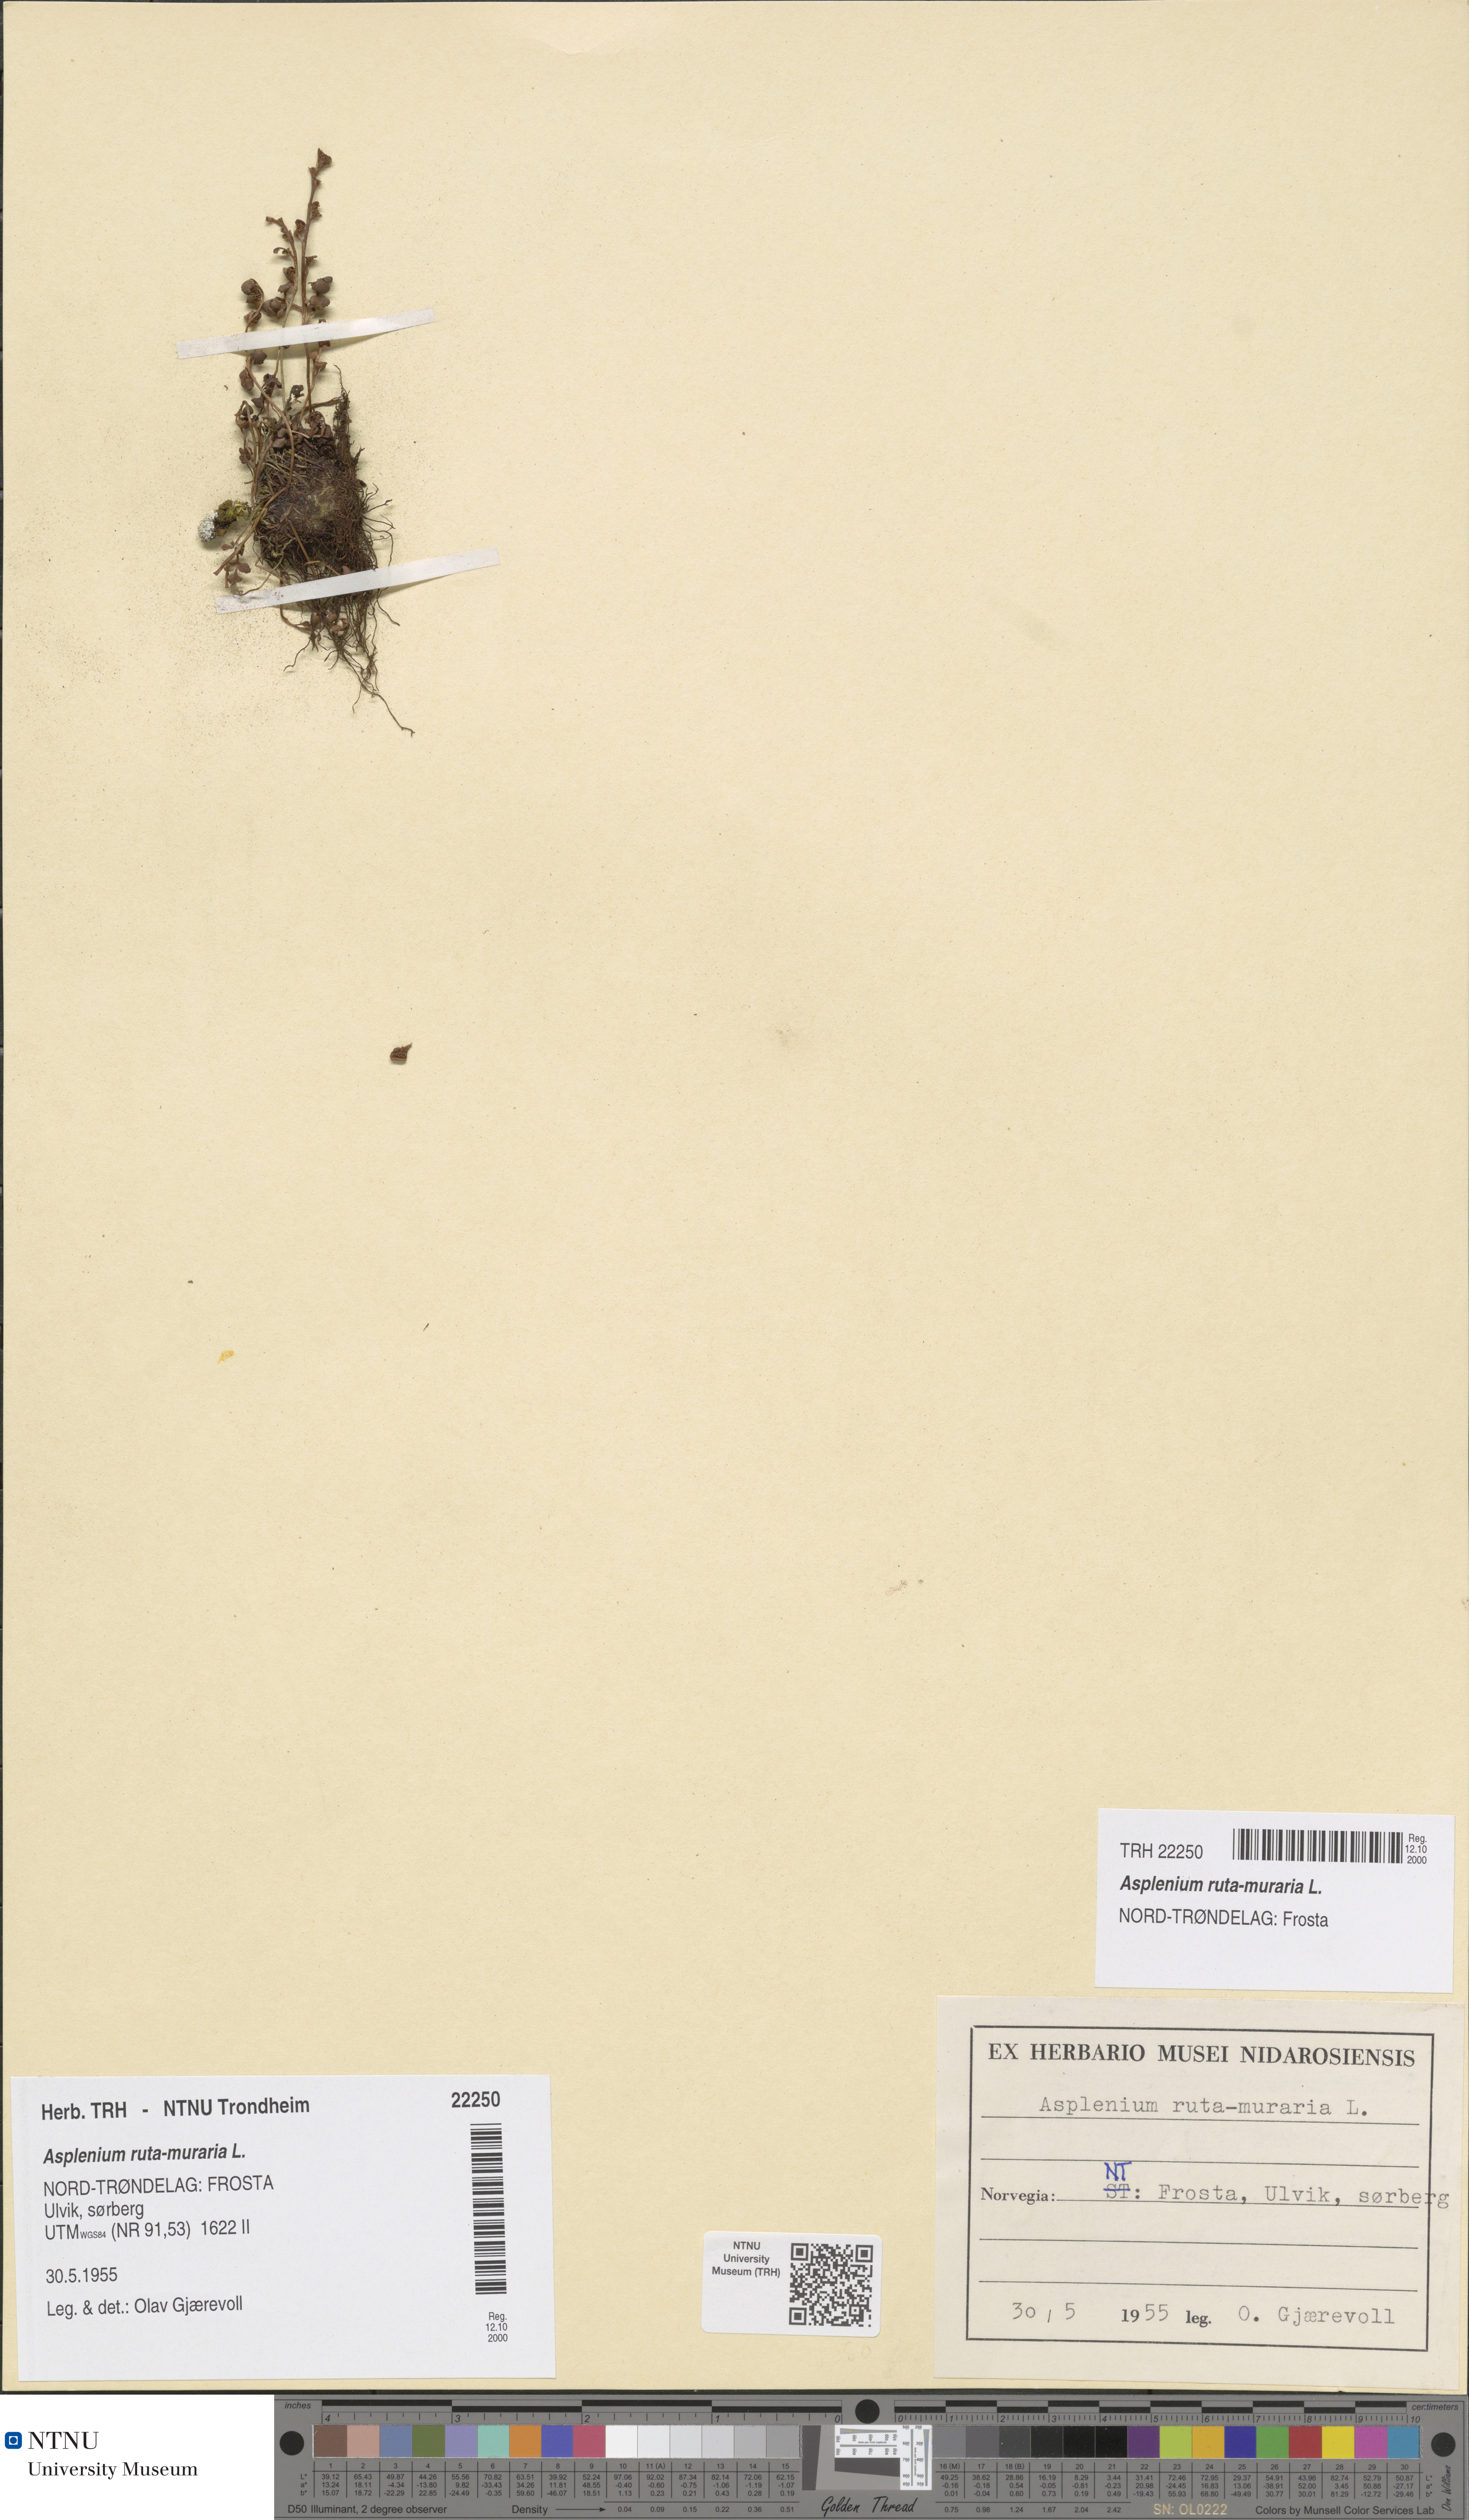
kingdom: Plantae
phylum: Tracheophyta
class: Polypodiopsida
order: Polypodiales
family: Aspleniaceae
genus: Asplenium
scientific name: Asplenium ruta-muraria
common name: Wall-rue
